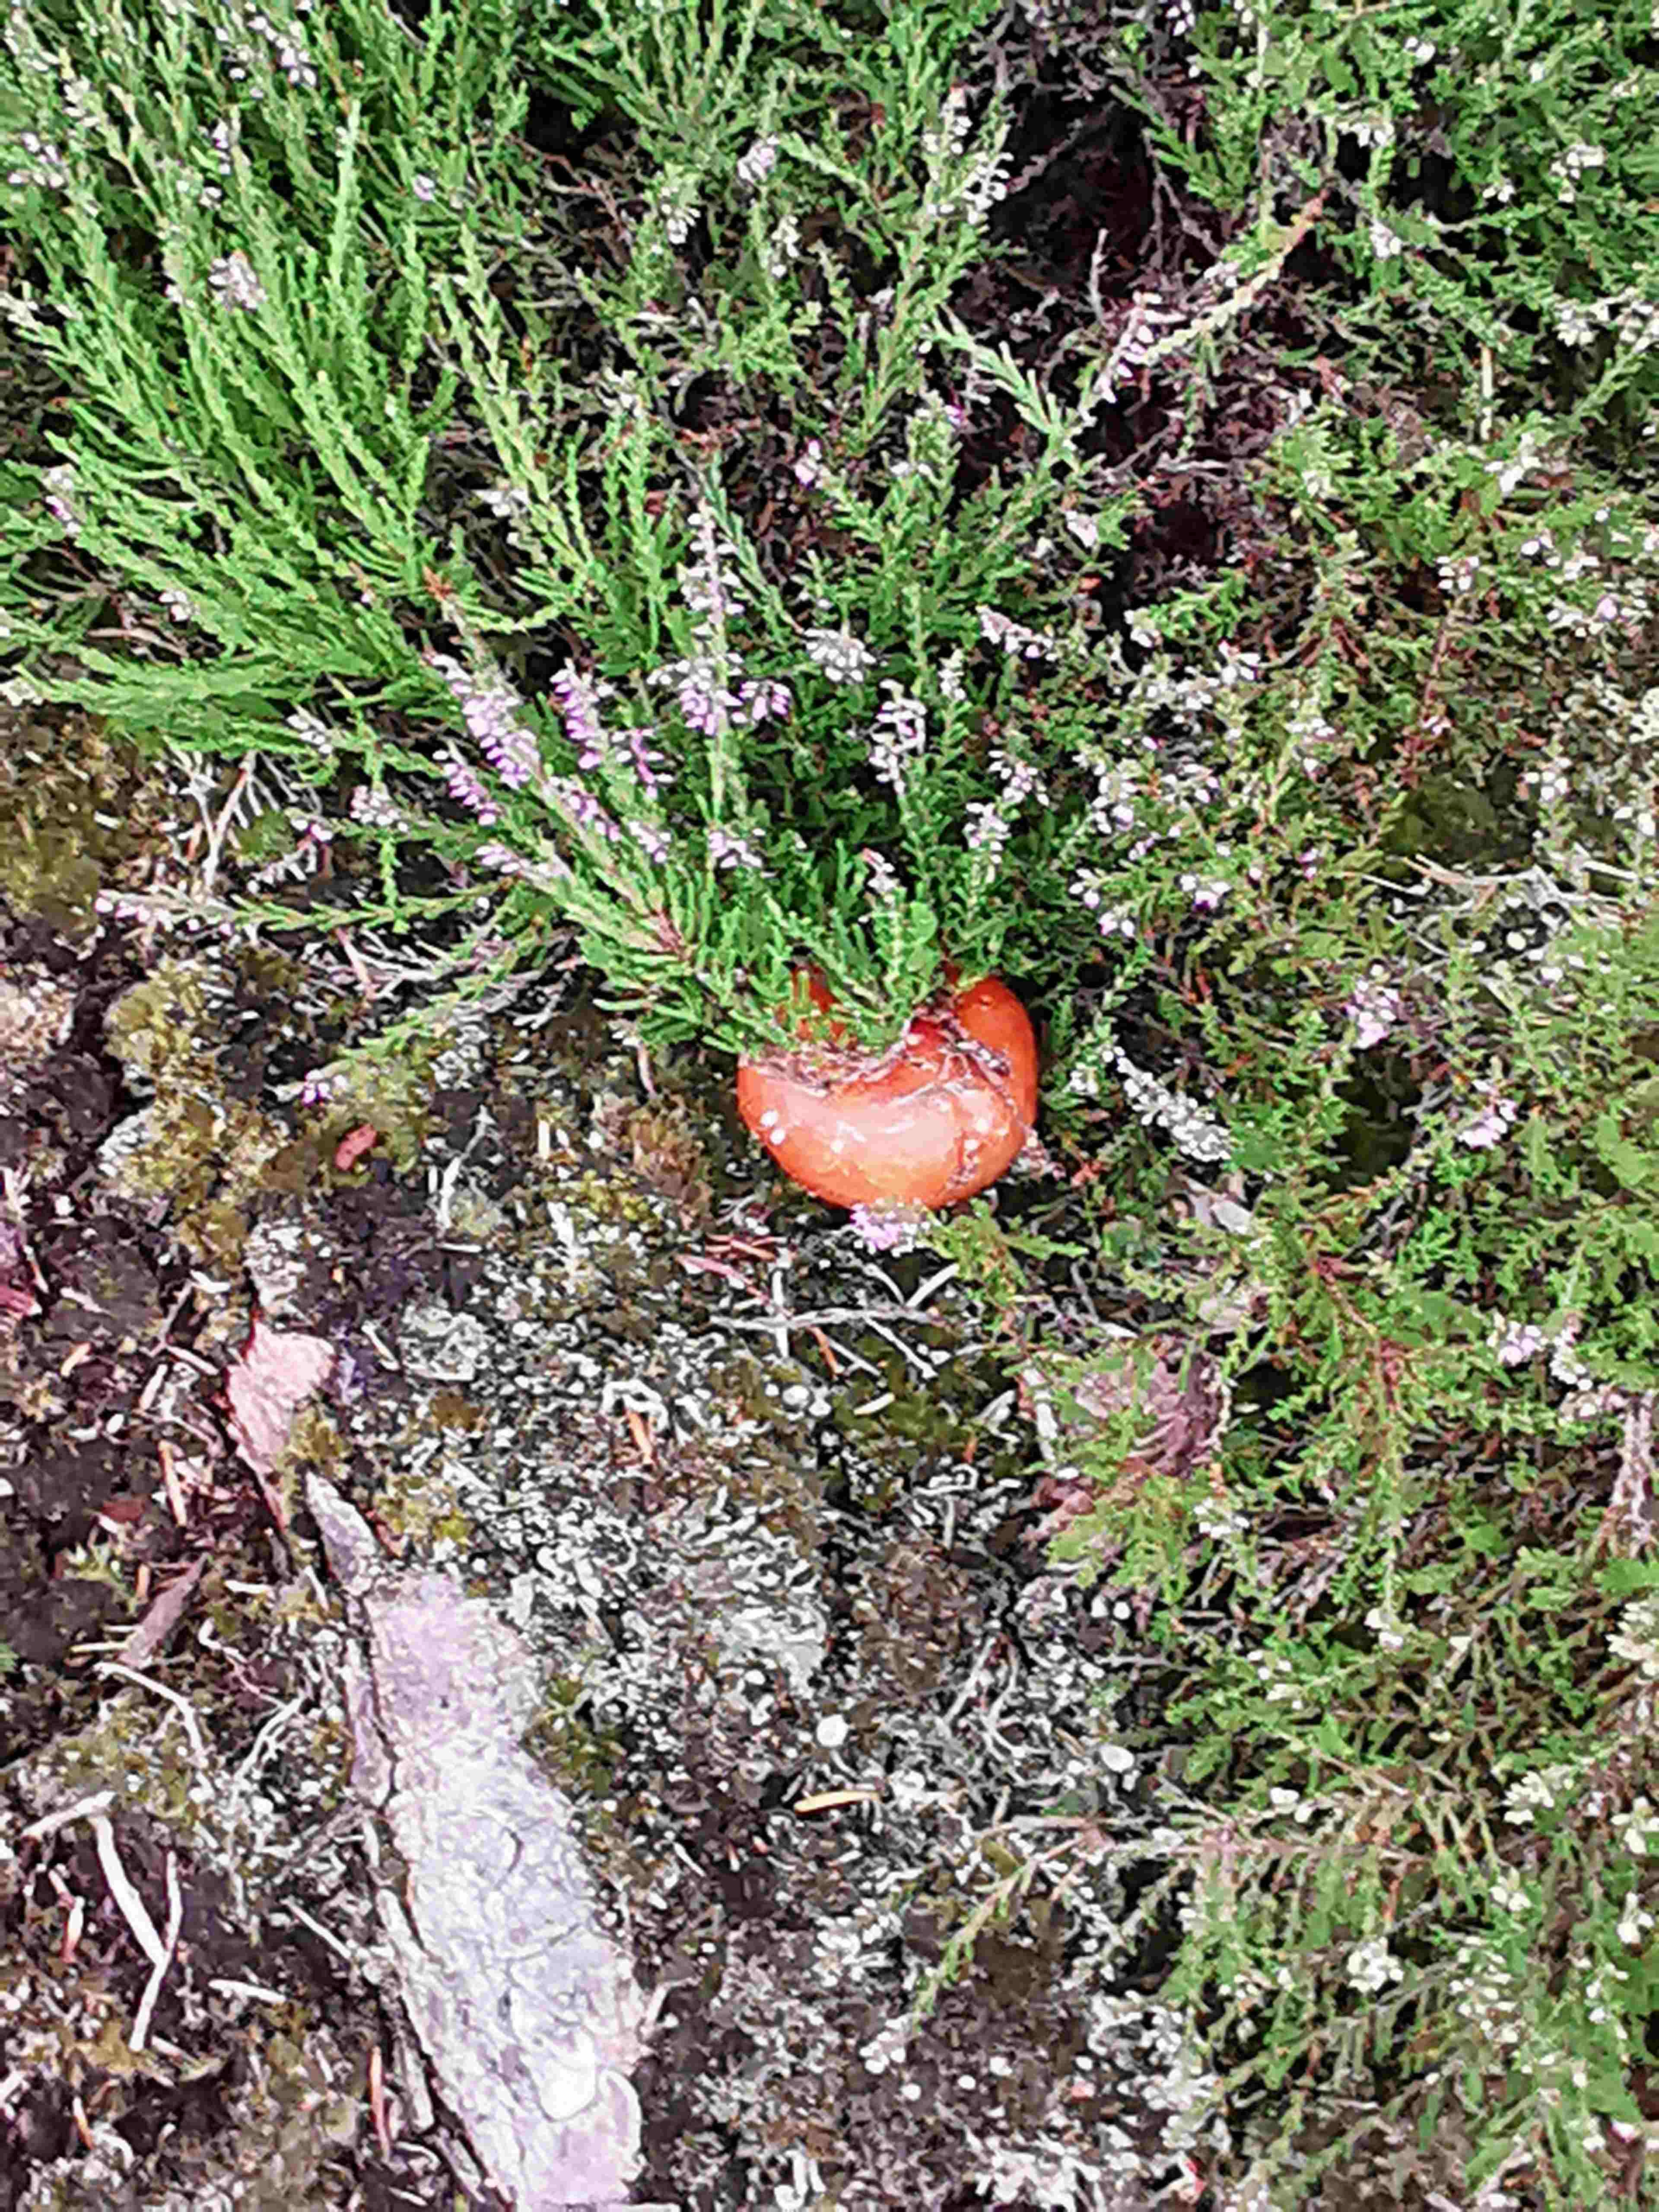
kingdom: Fungi
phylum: Basidiomycota
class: Agaricomycetes
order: Russulales
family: Russulaceae
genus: Russula
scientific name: Russula paludosa
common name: prægtig skørhat
